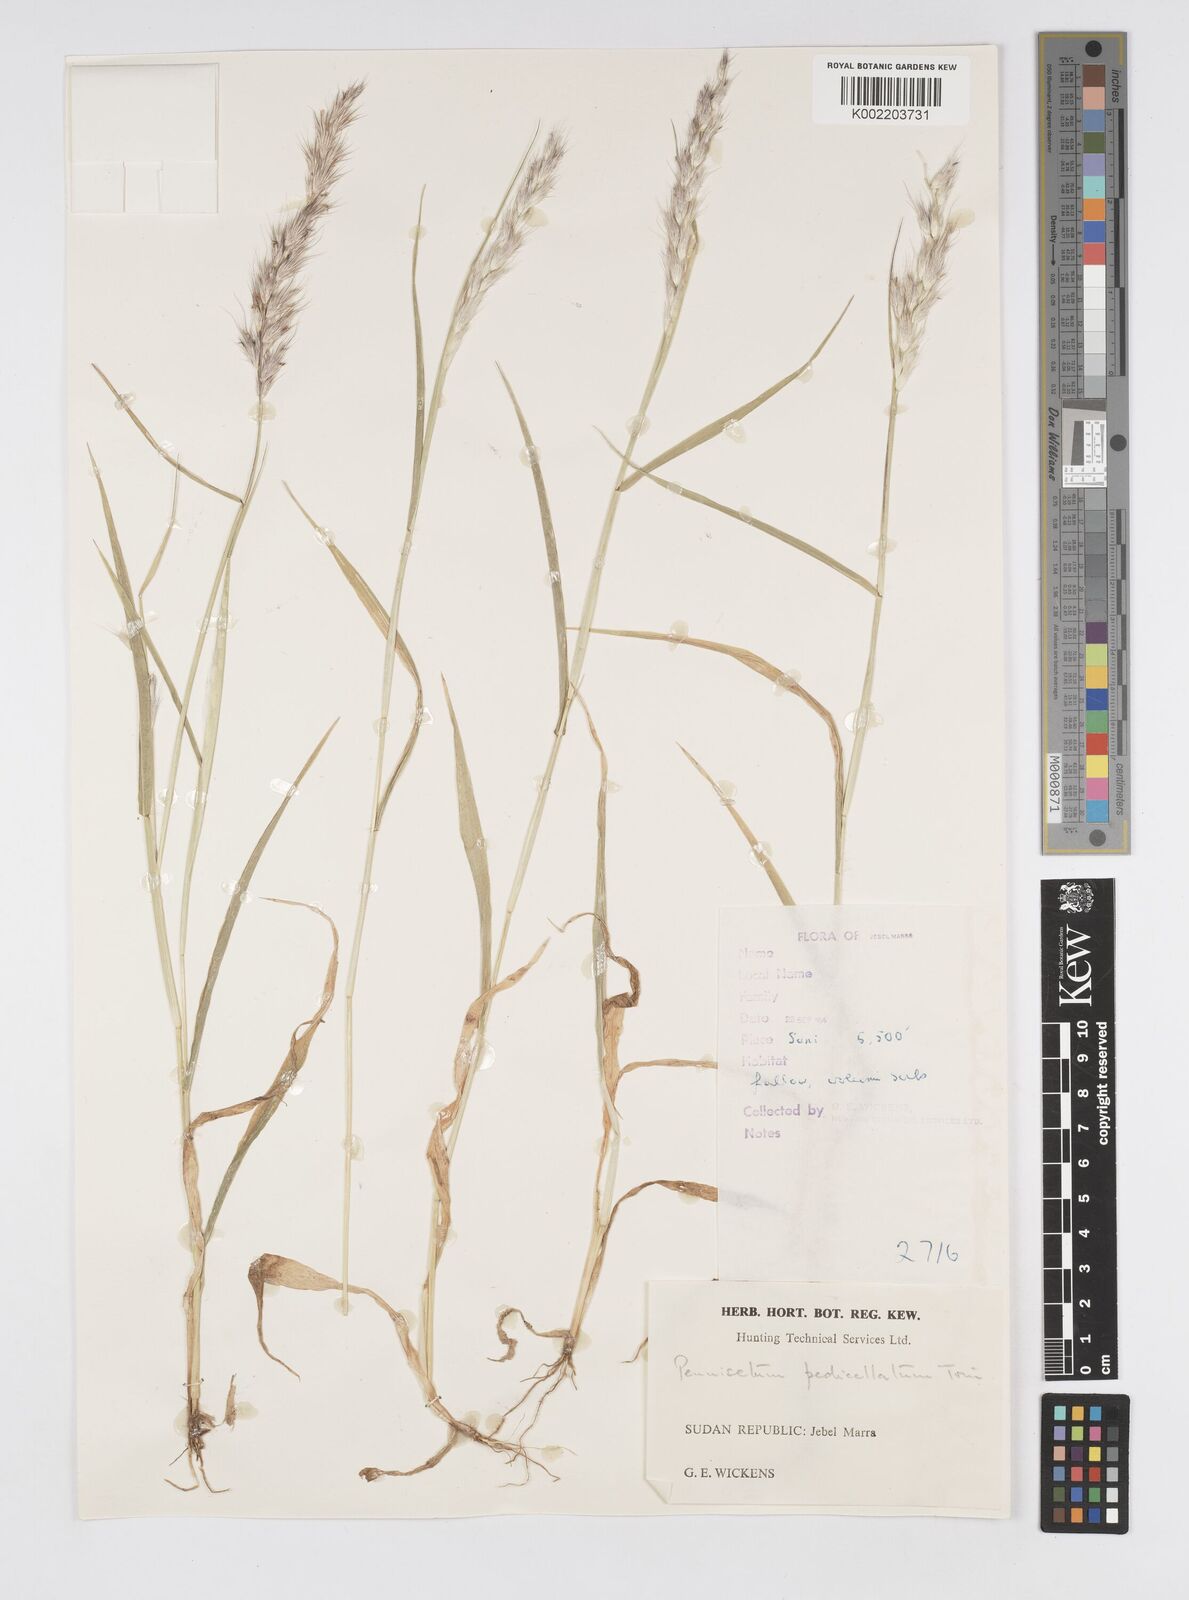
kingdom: Plantae
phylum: Tracheophyta
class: Liliopsida
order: Poales
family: Poaceae
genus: Cenchrus
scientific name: Cenchrus pedicellatus
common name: Hairy fountain grass
